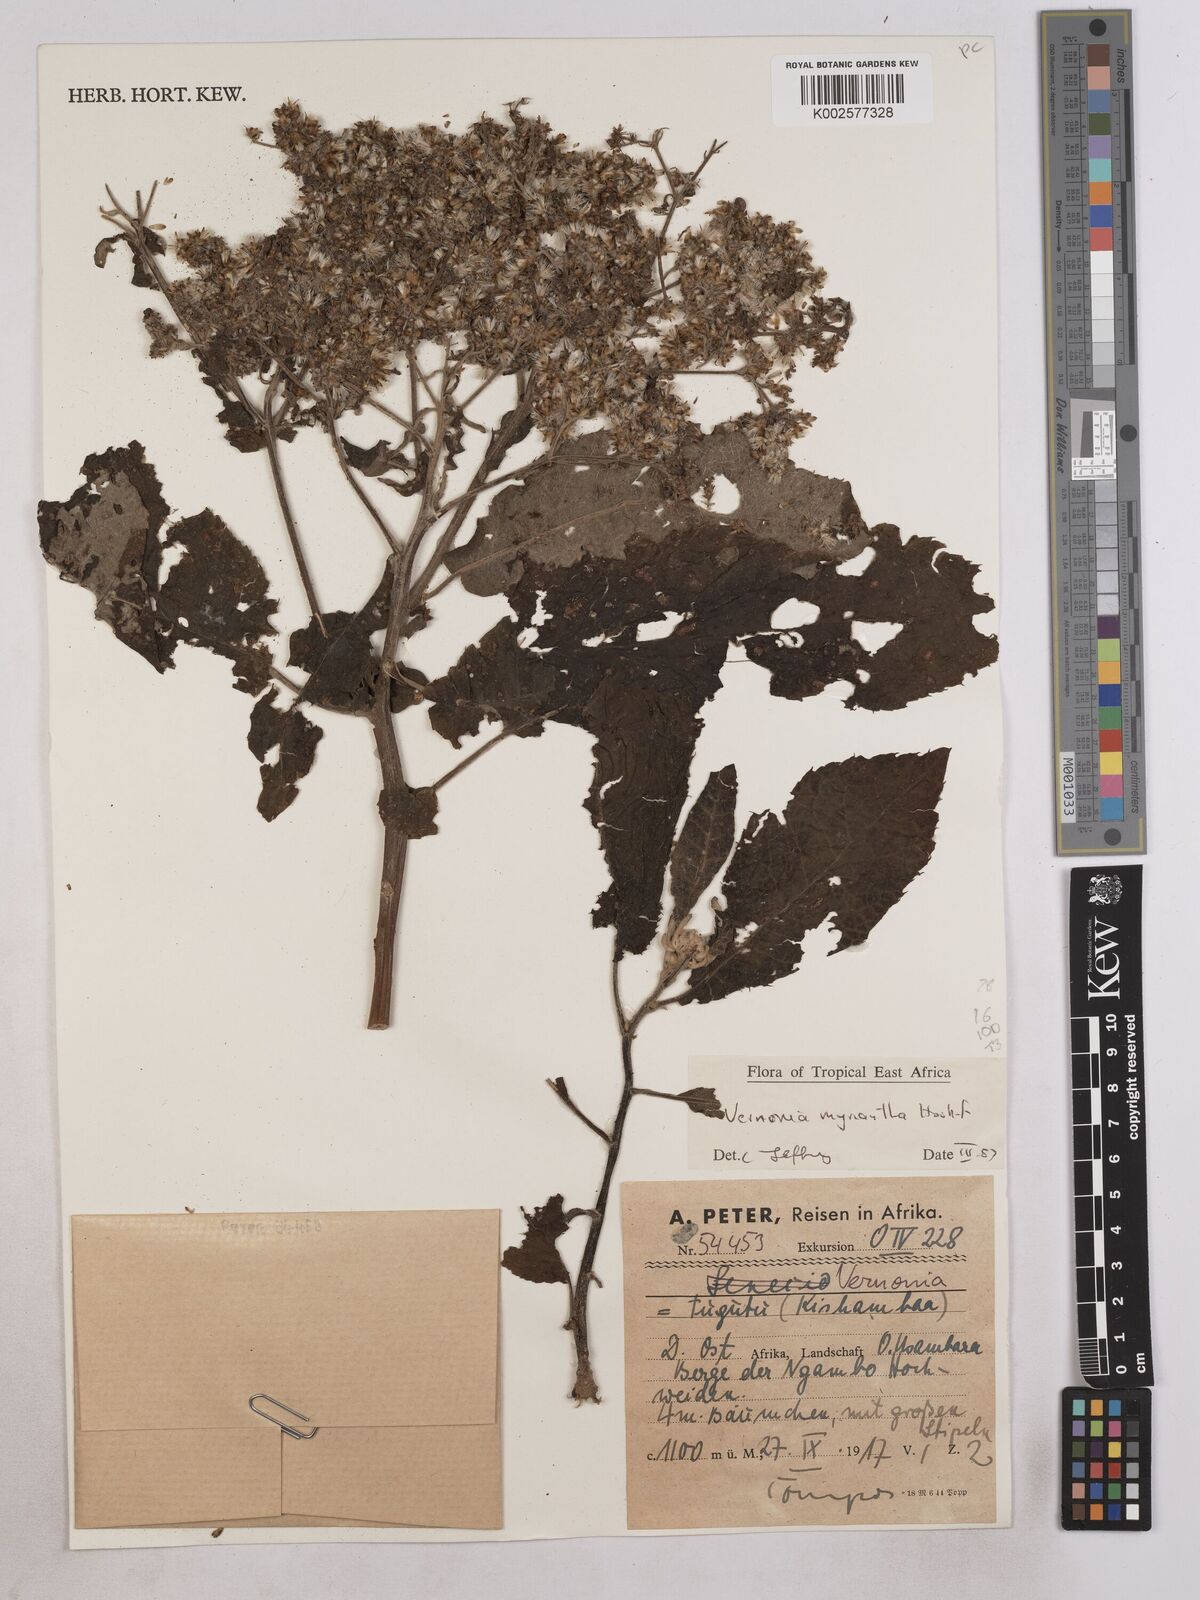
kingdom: Plantae
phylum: Tracheophyta
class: Magnoliopsida
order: Asterales
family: Asteraceae
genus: Gymnanthemum
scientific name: Gymnanthemum myrianthum
